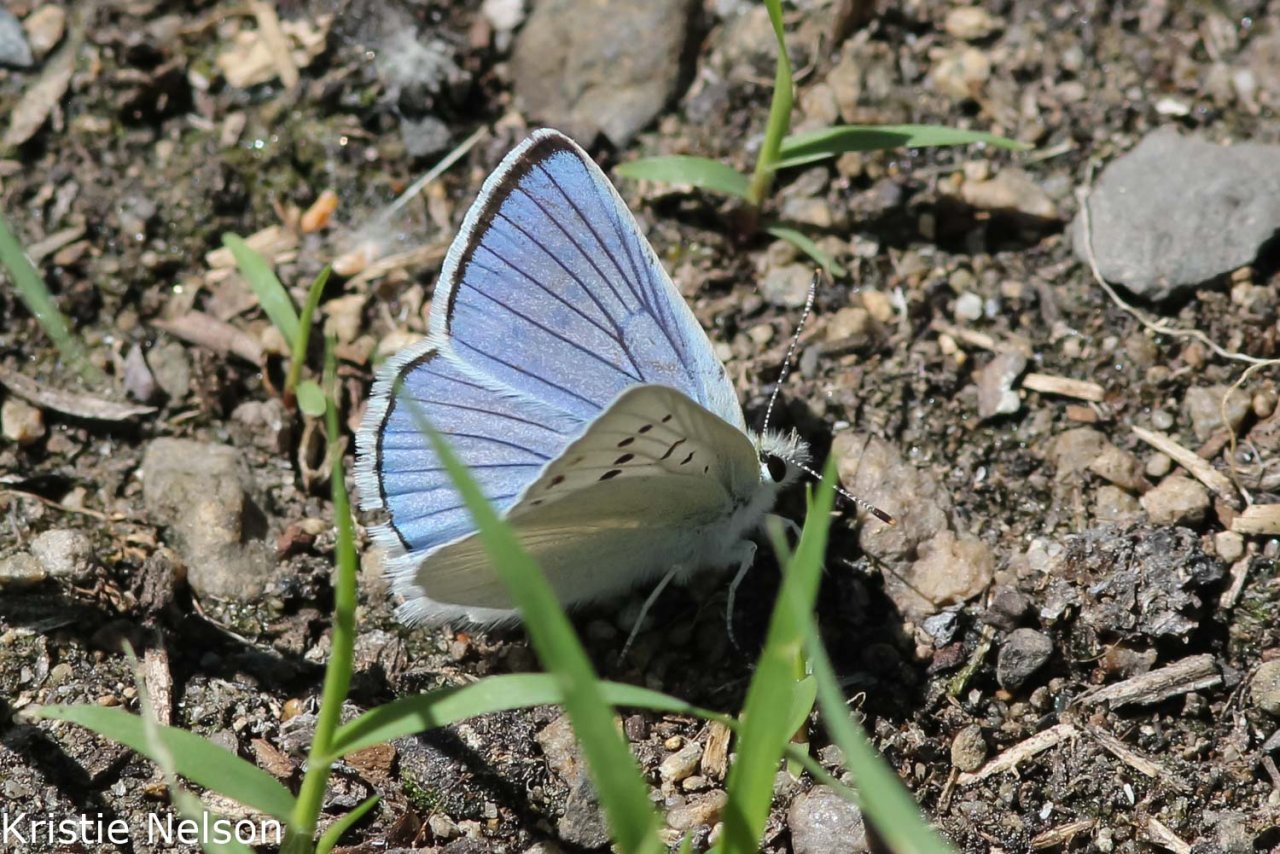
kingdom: Animalia
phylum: Arthropoda
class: Insecta
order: Lepidoptera
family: Lycaenidae
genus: Lycaena
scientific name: Lycaena heteronea
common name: Blue Copper
